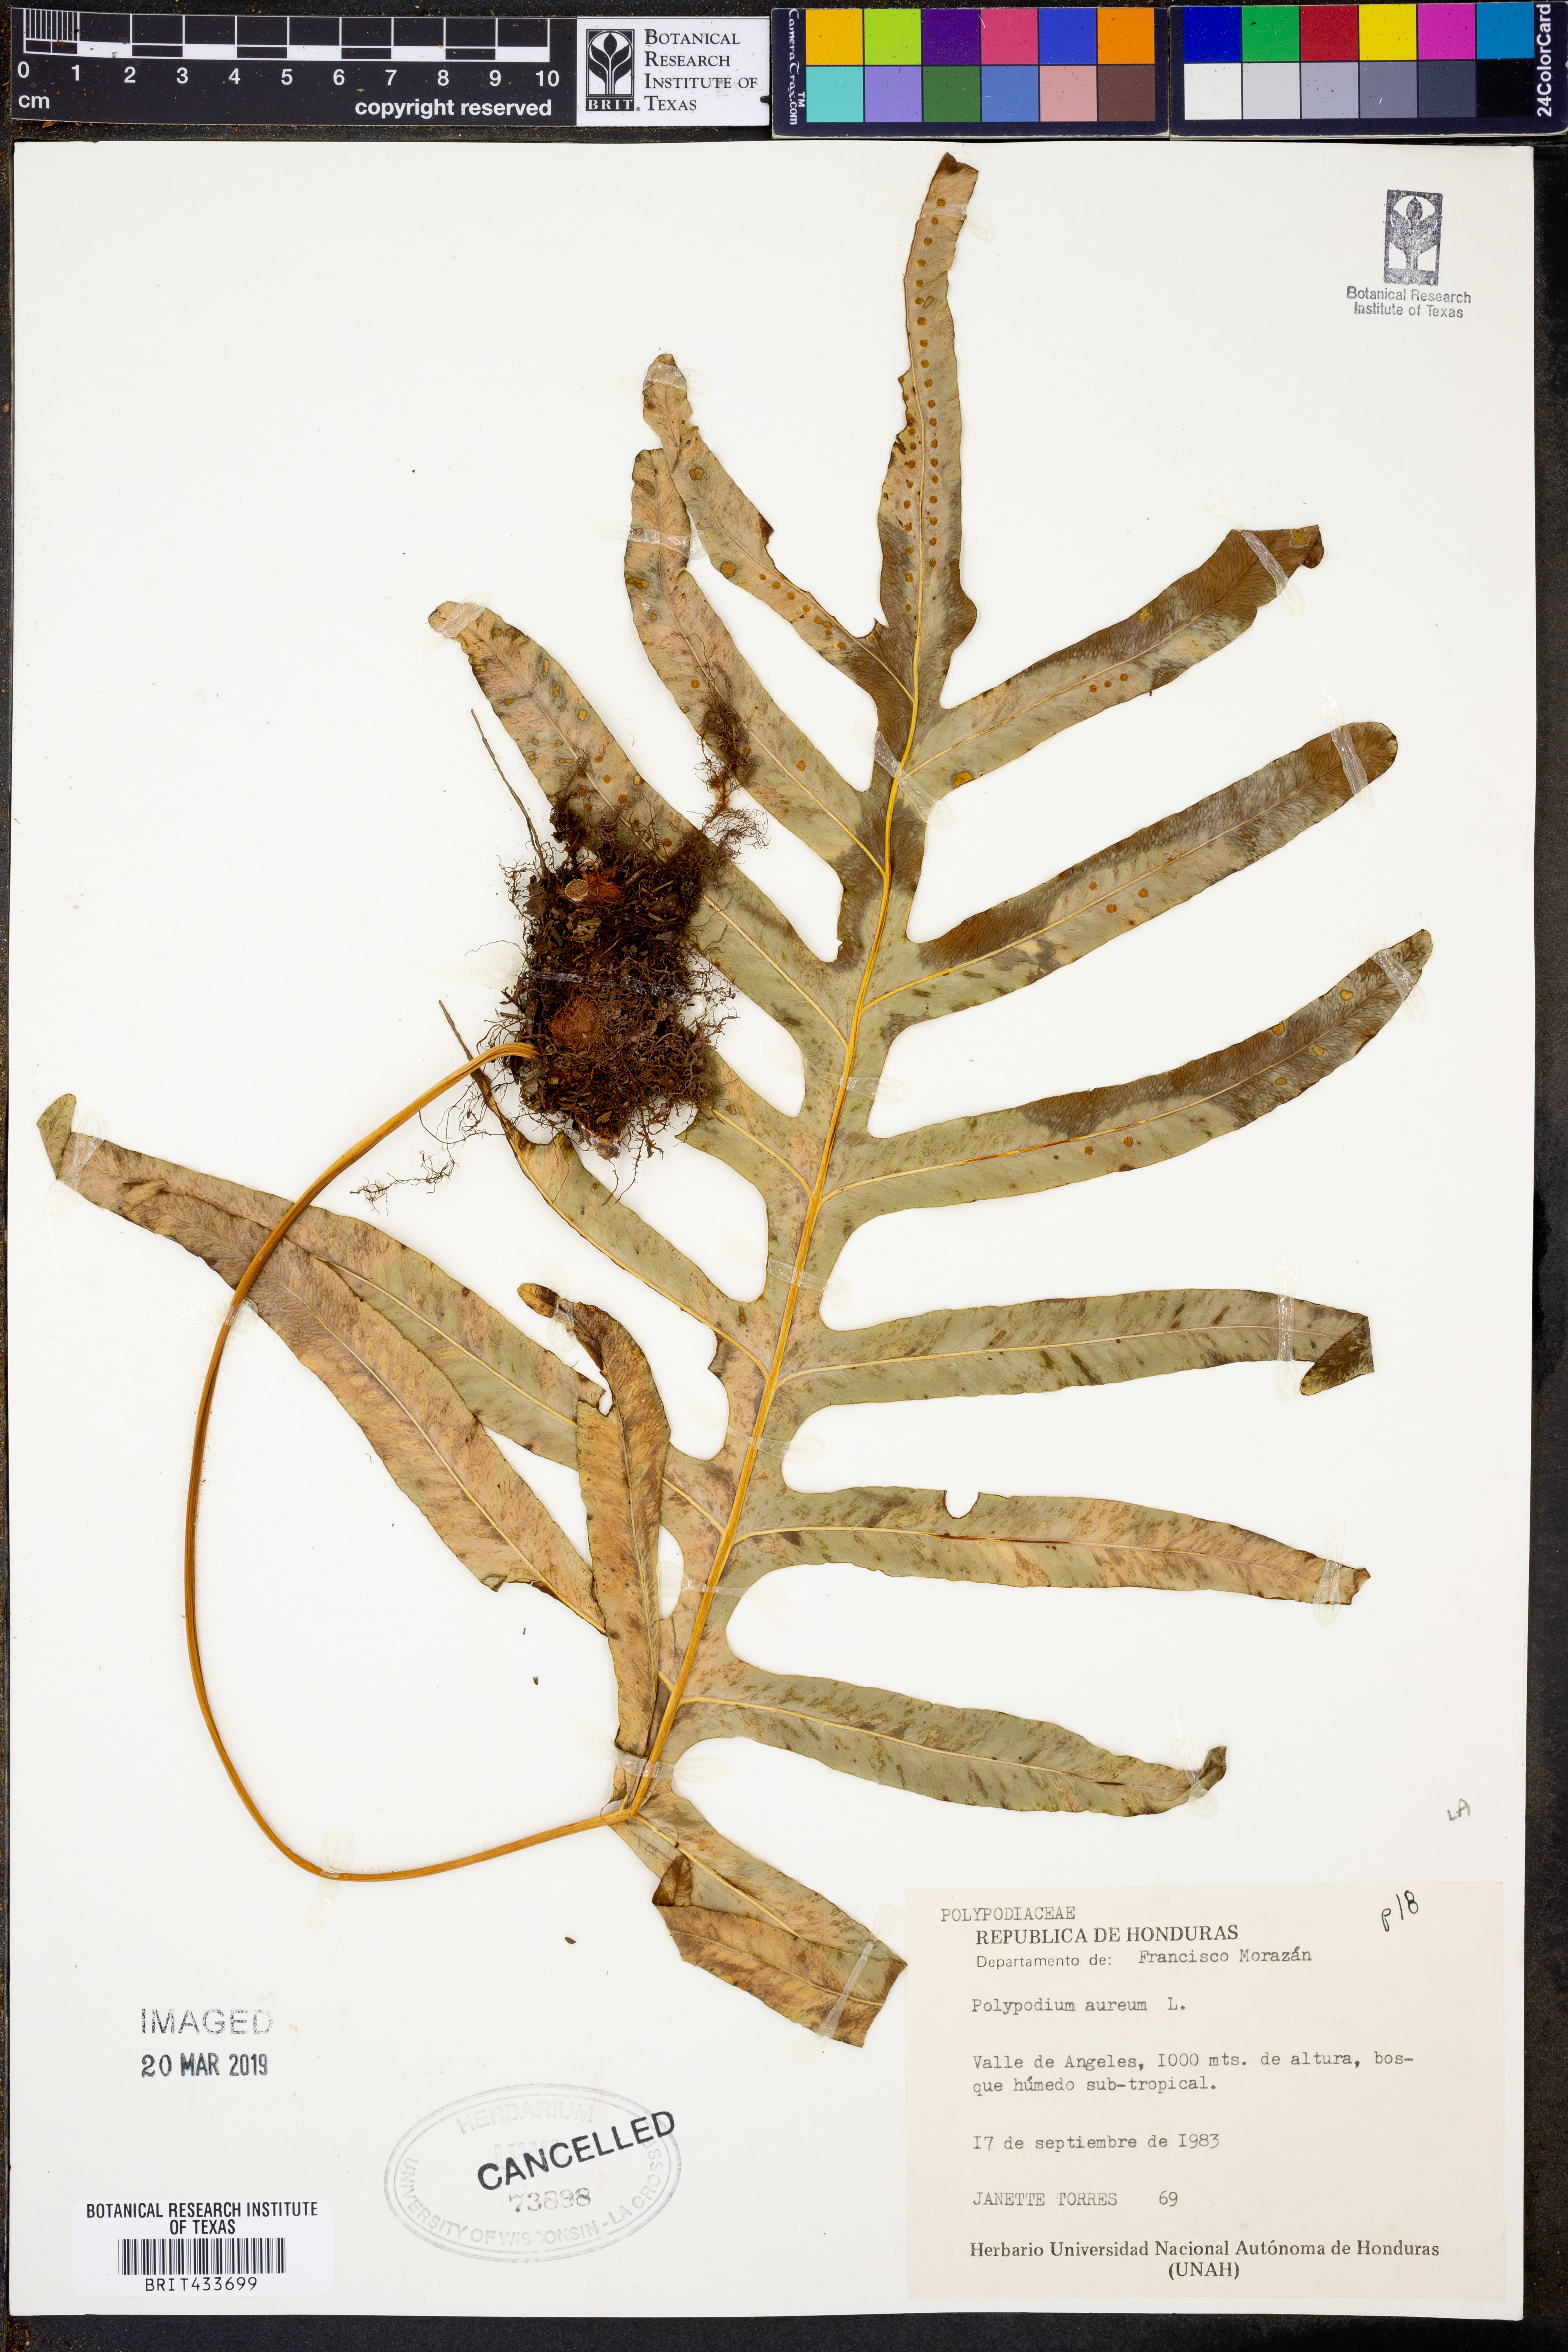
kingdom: Plantae
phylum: Tracheophyta
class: Polypodiopsida
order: Polypodiales
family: Polypodiaceae
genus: Phlebodium
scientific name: Phlebodium aureum
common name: Gold-foot fern
